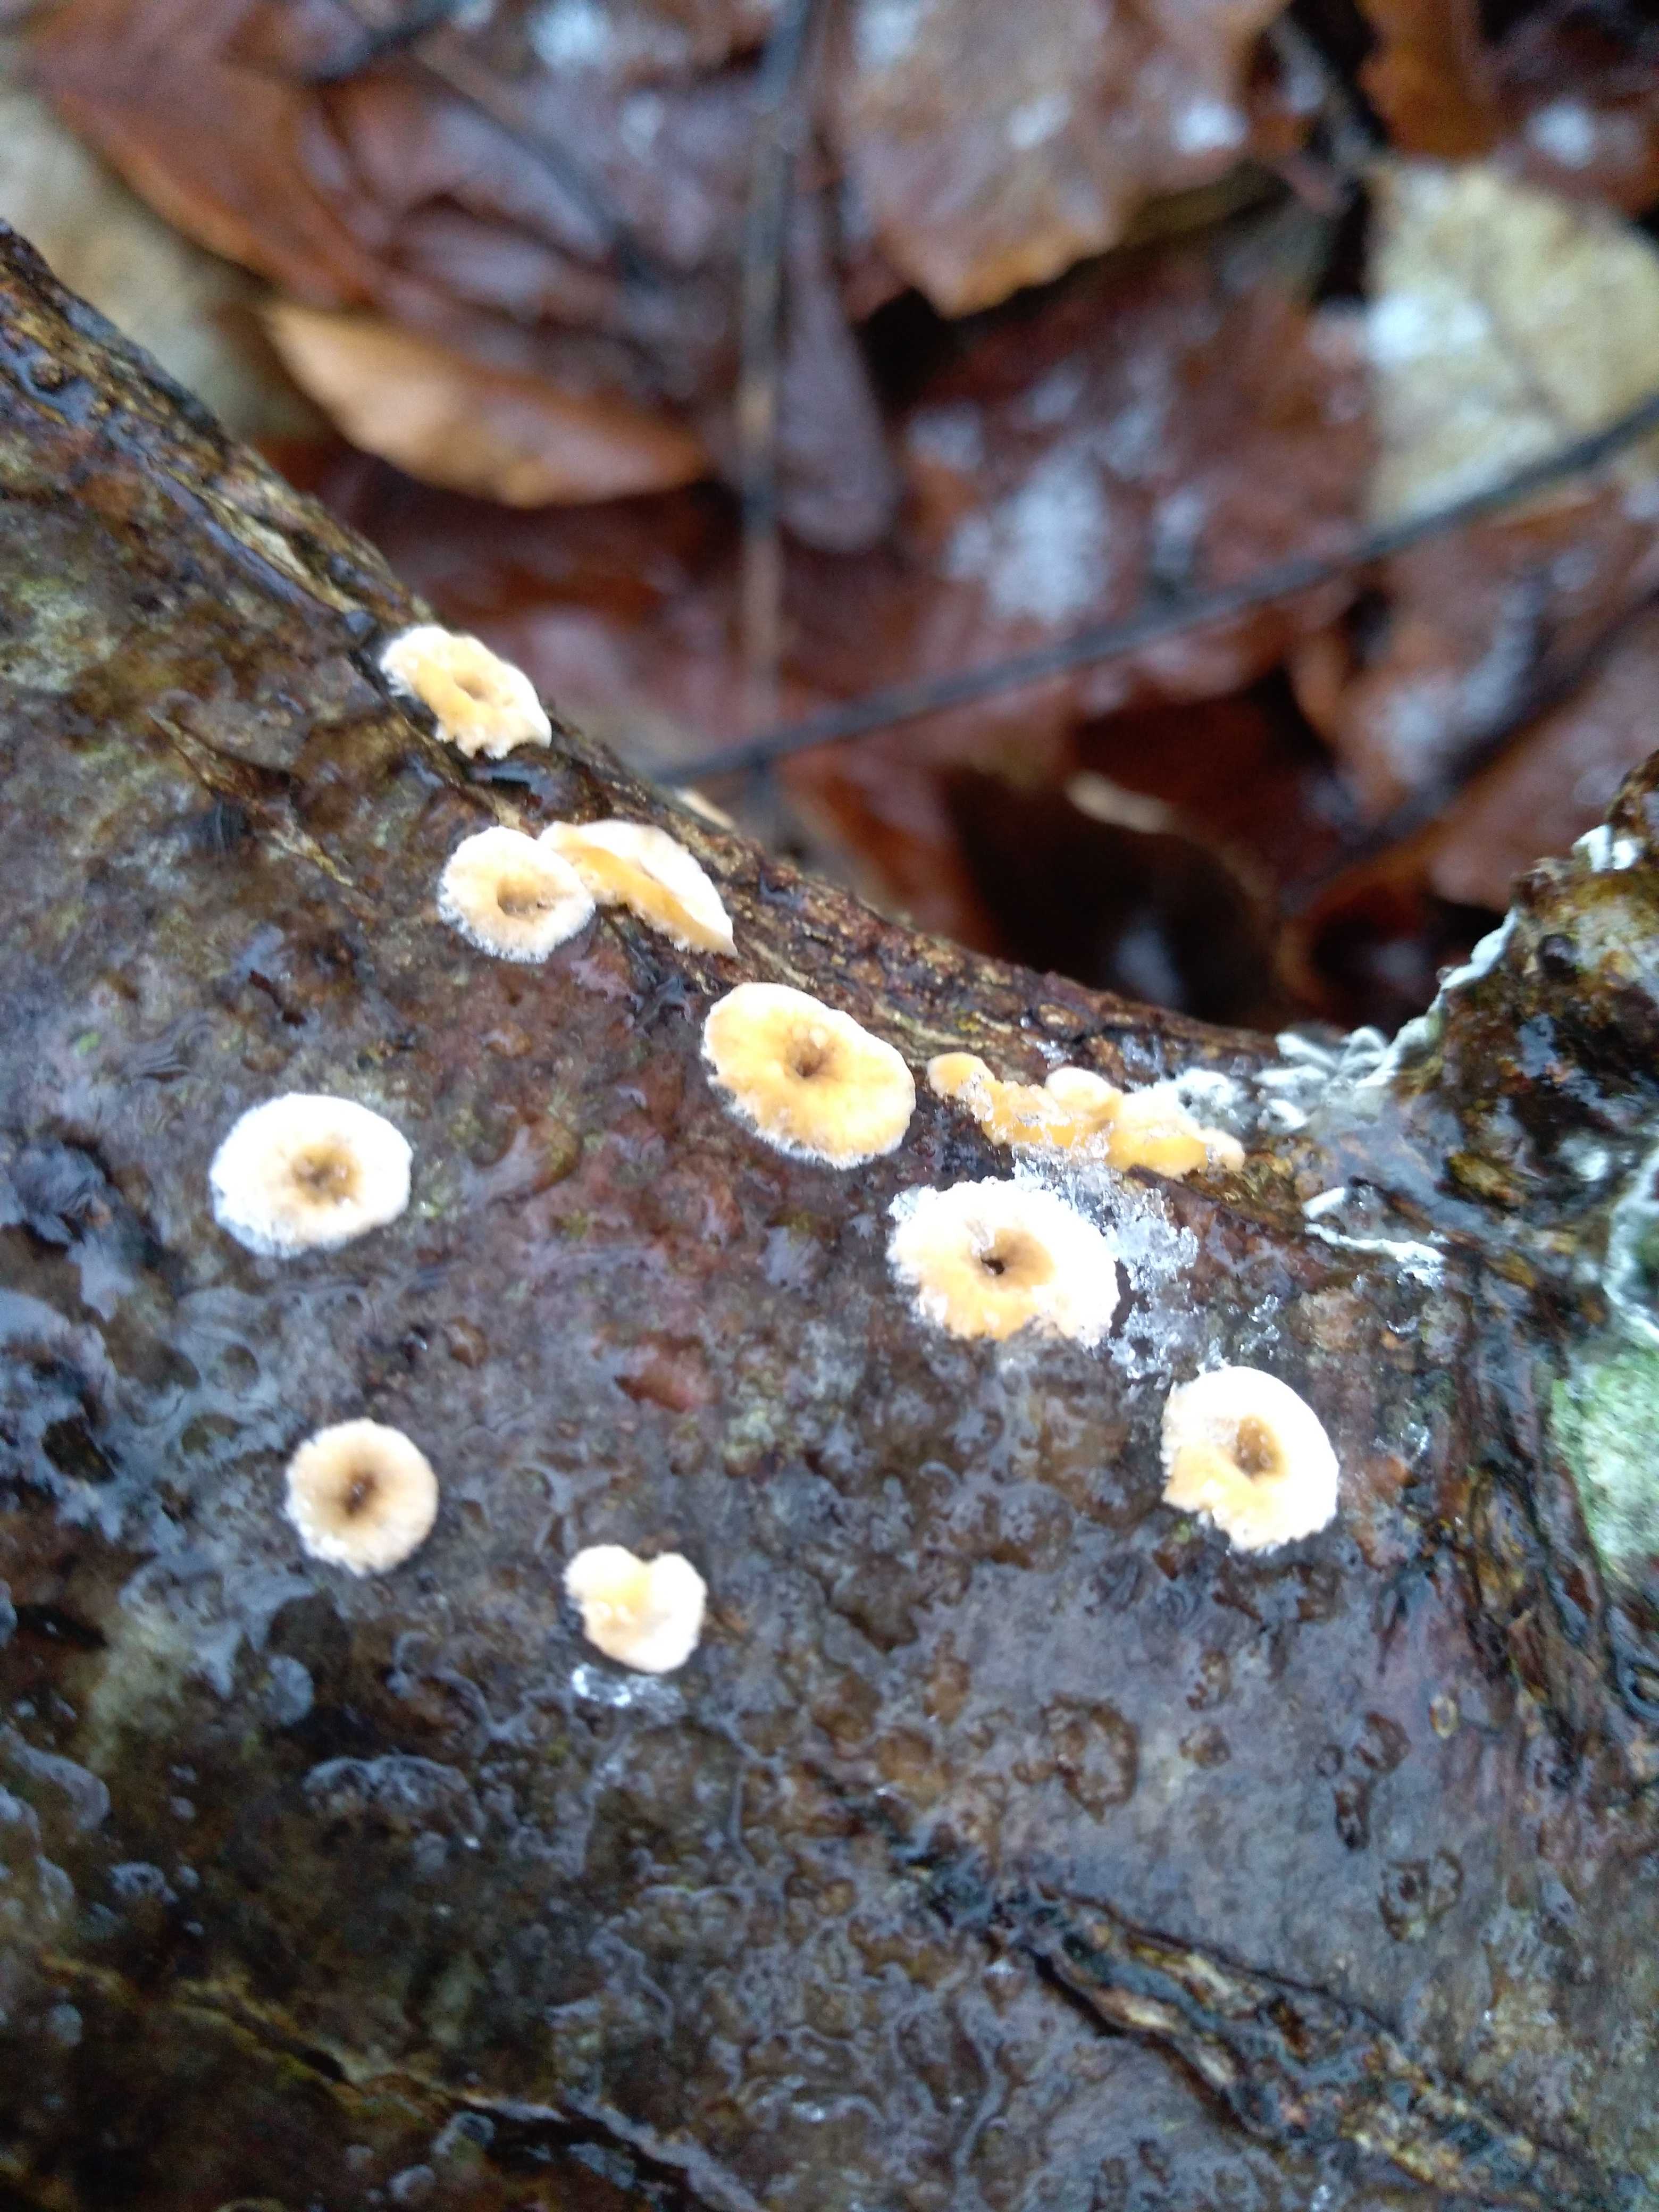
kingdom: Fungi
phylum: Basidiomycota
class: Agaricomycetes
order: Russulales
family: Stereaceae
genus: Stereum
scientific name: Stereum hirsutum
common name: håret lædersvamp
